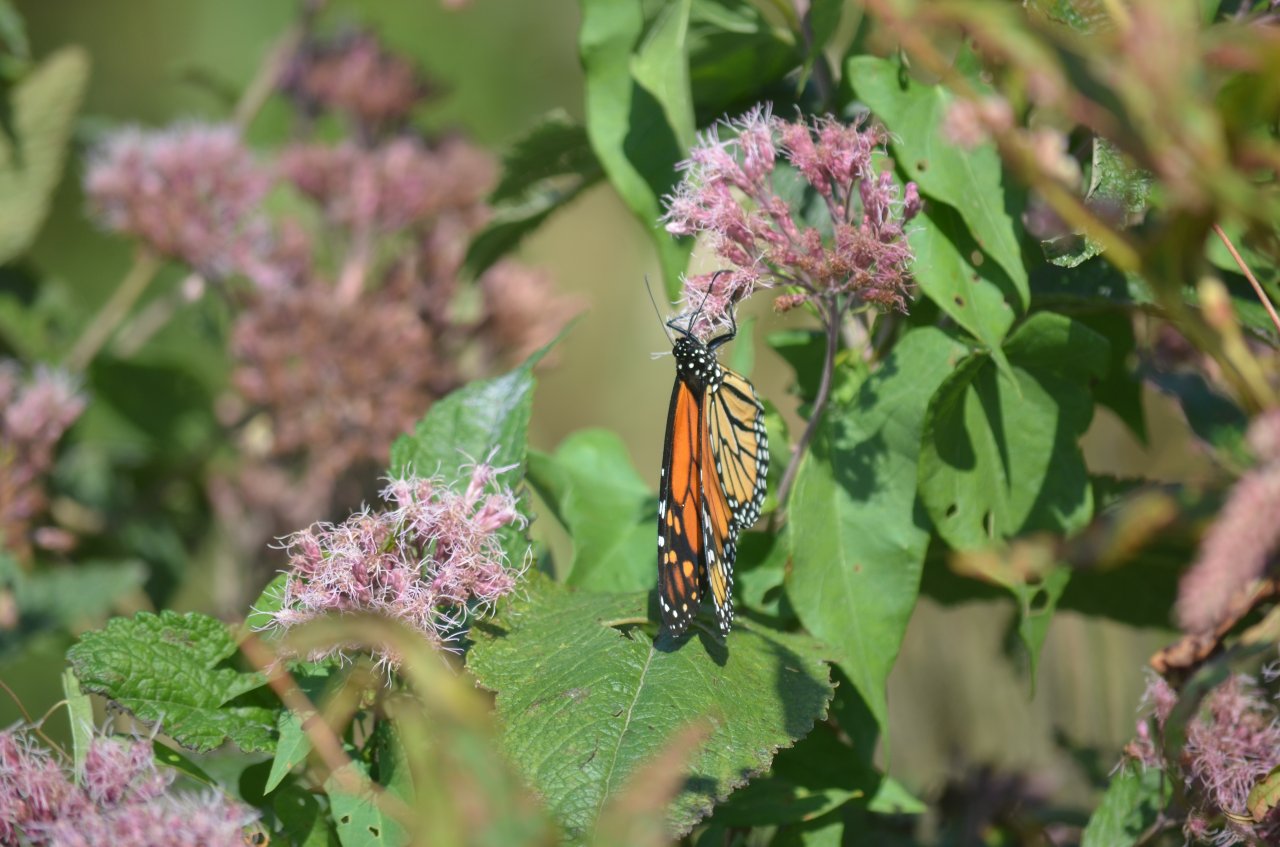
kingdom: Animalia
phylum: Arthropoda
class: Insecta
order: Lepidoptera
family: Nymphalidae
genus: Danaus
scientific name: Danaus plexippus
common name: Monarch
